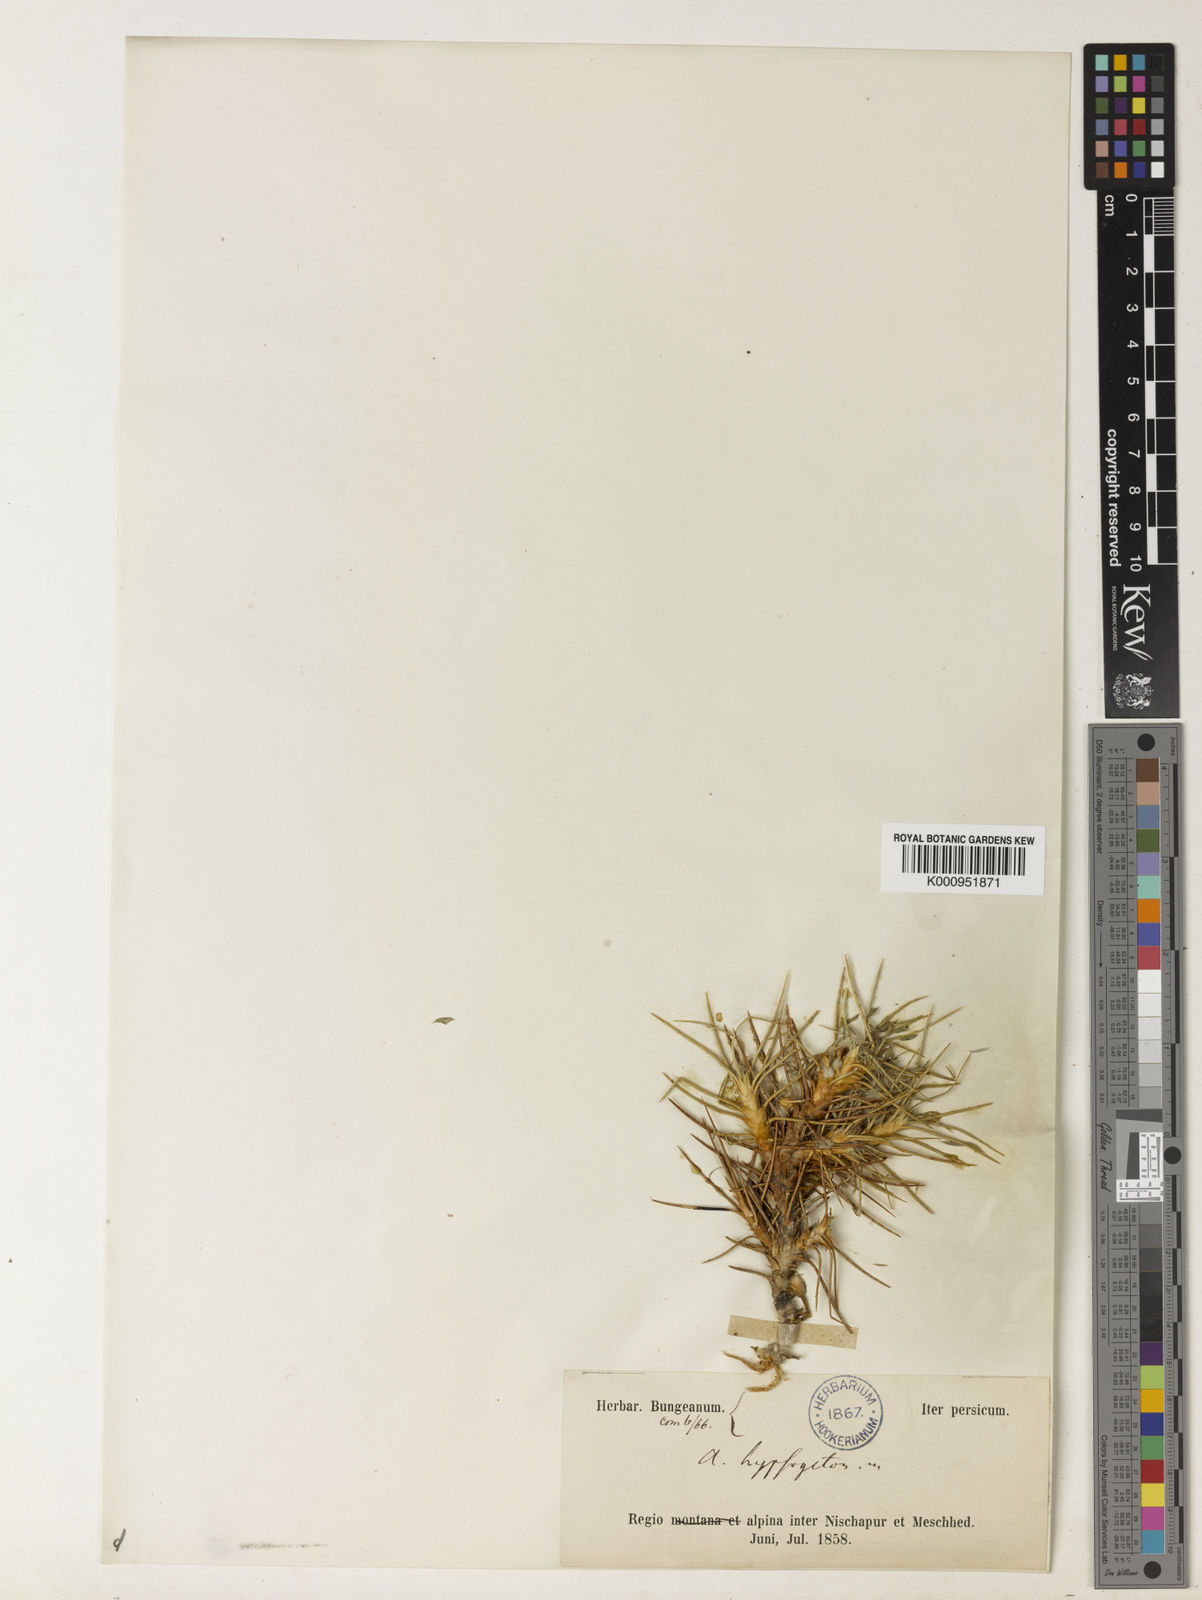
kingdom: Plantae
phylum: Tracheophyta
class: Magnoliopsida
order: Fabales
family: Fabaceae
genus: Astragalus
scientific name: Astragalus hypsogeton
